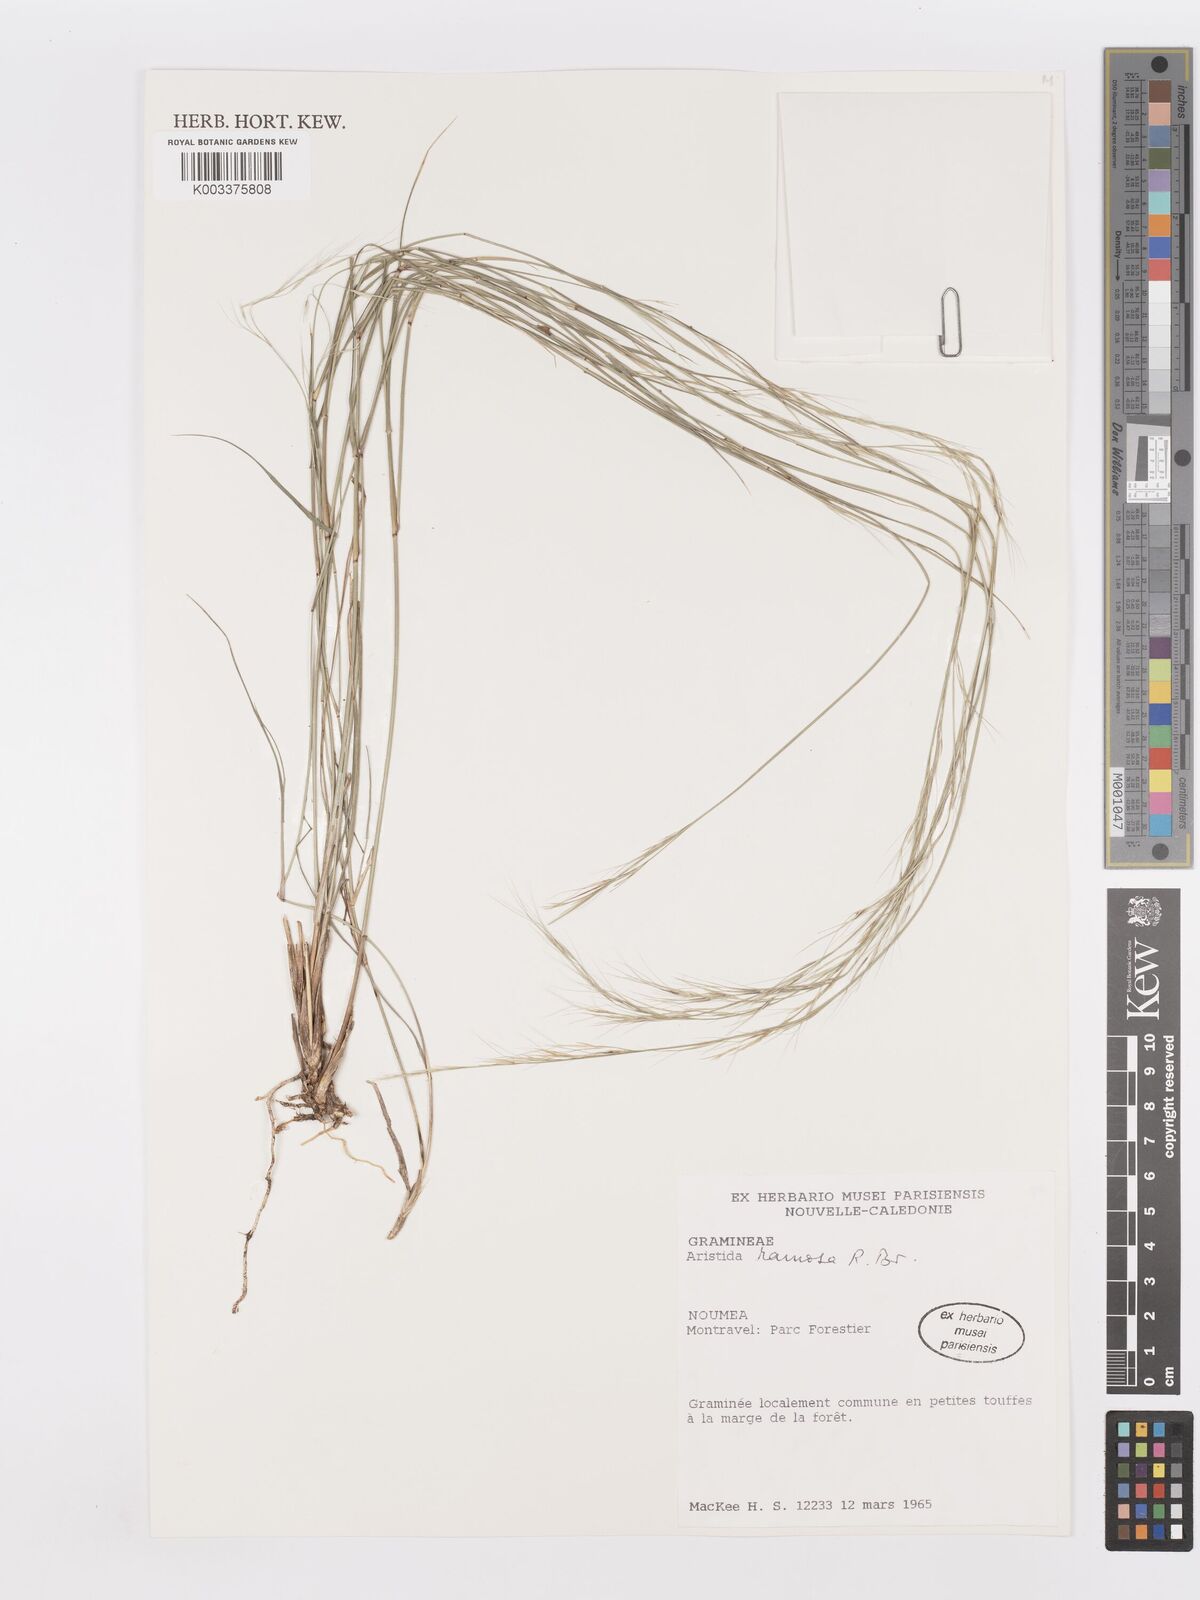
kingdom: Plantae
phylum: Tracheophyta
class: Liliopsida
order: Poales
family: Poaceae
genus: Aristida
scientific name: Aristida ramosa
